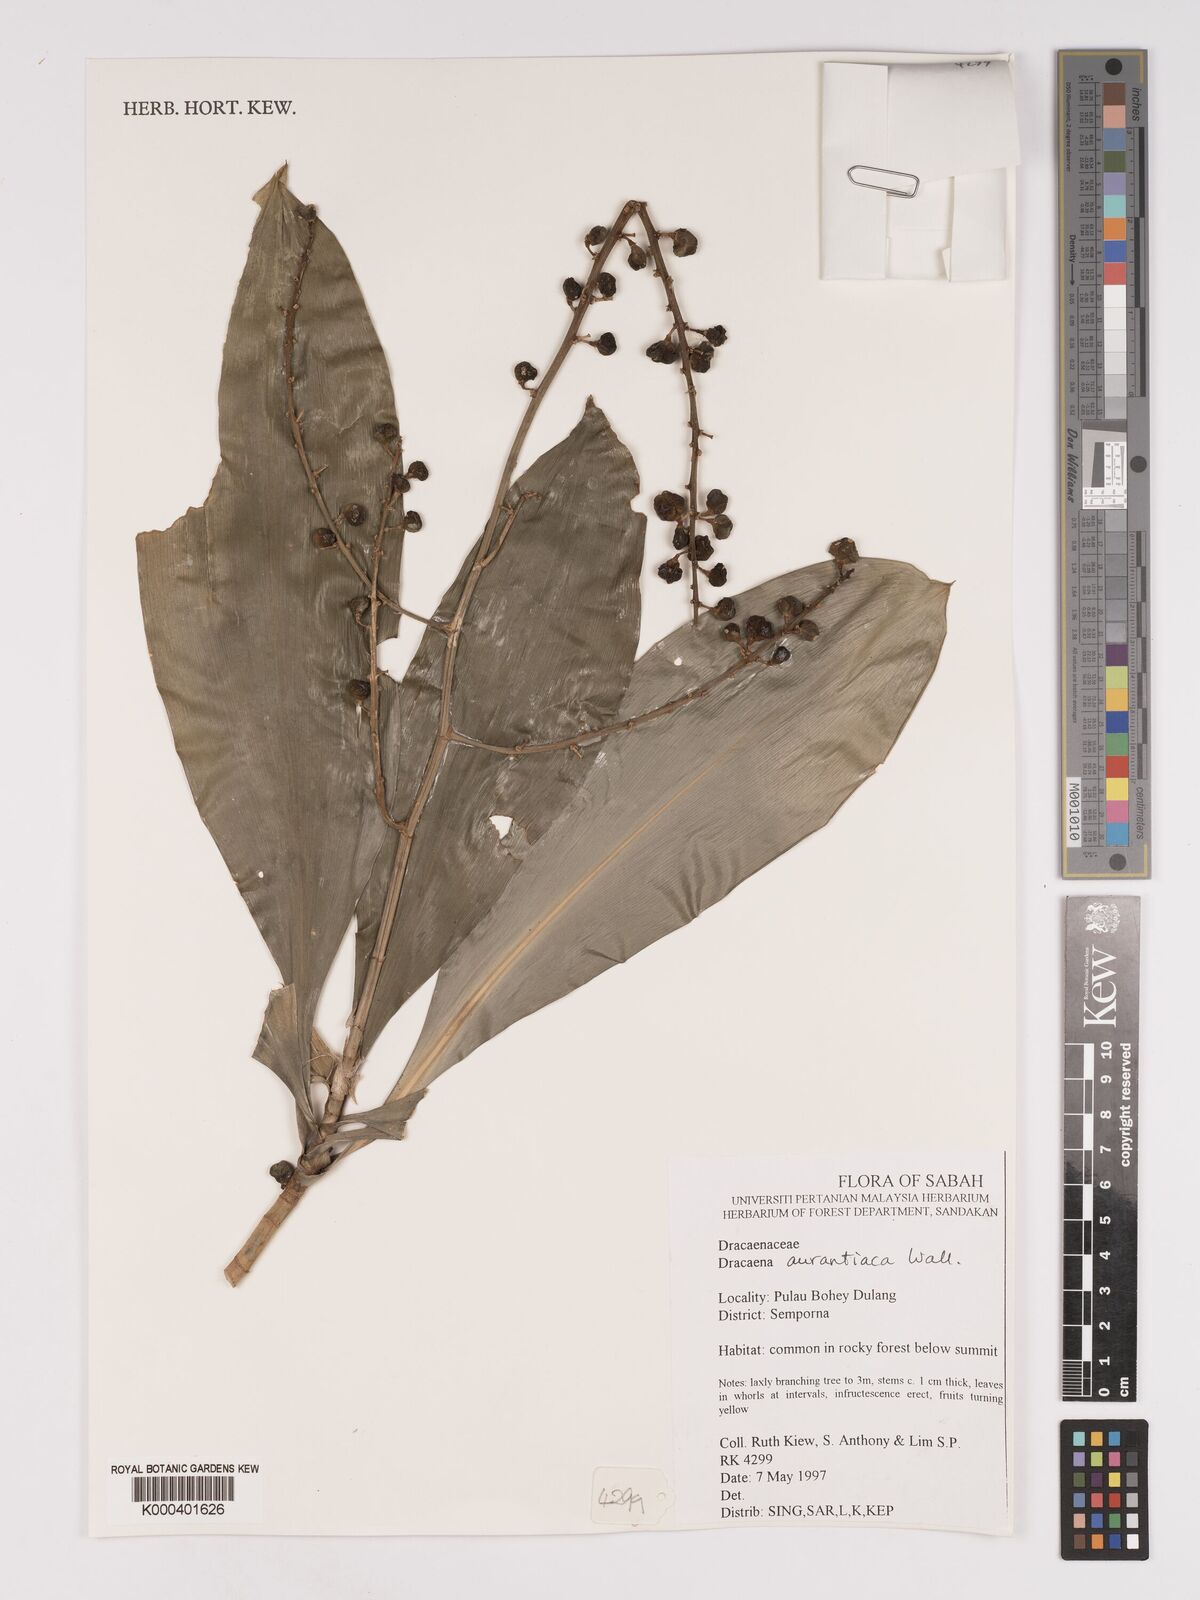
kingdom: Plantae
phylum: Tracheophyta
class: Liliopsida
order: Asparagales
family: Asparagaceae
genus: Dracaena
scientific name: Dracaena
